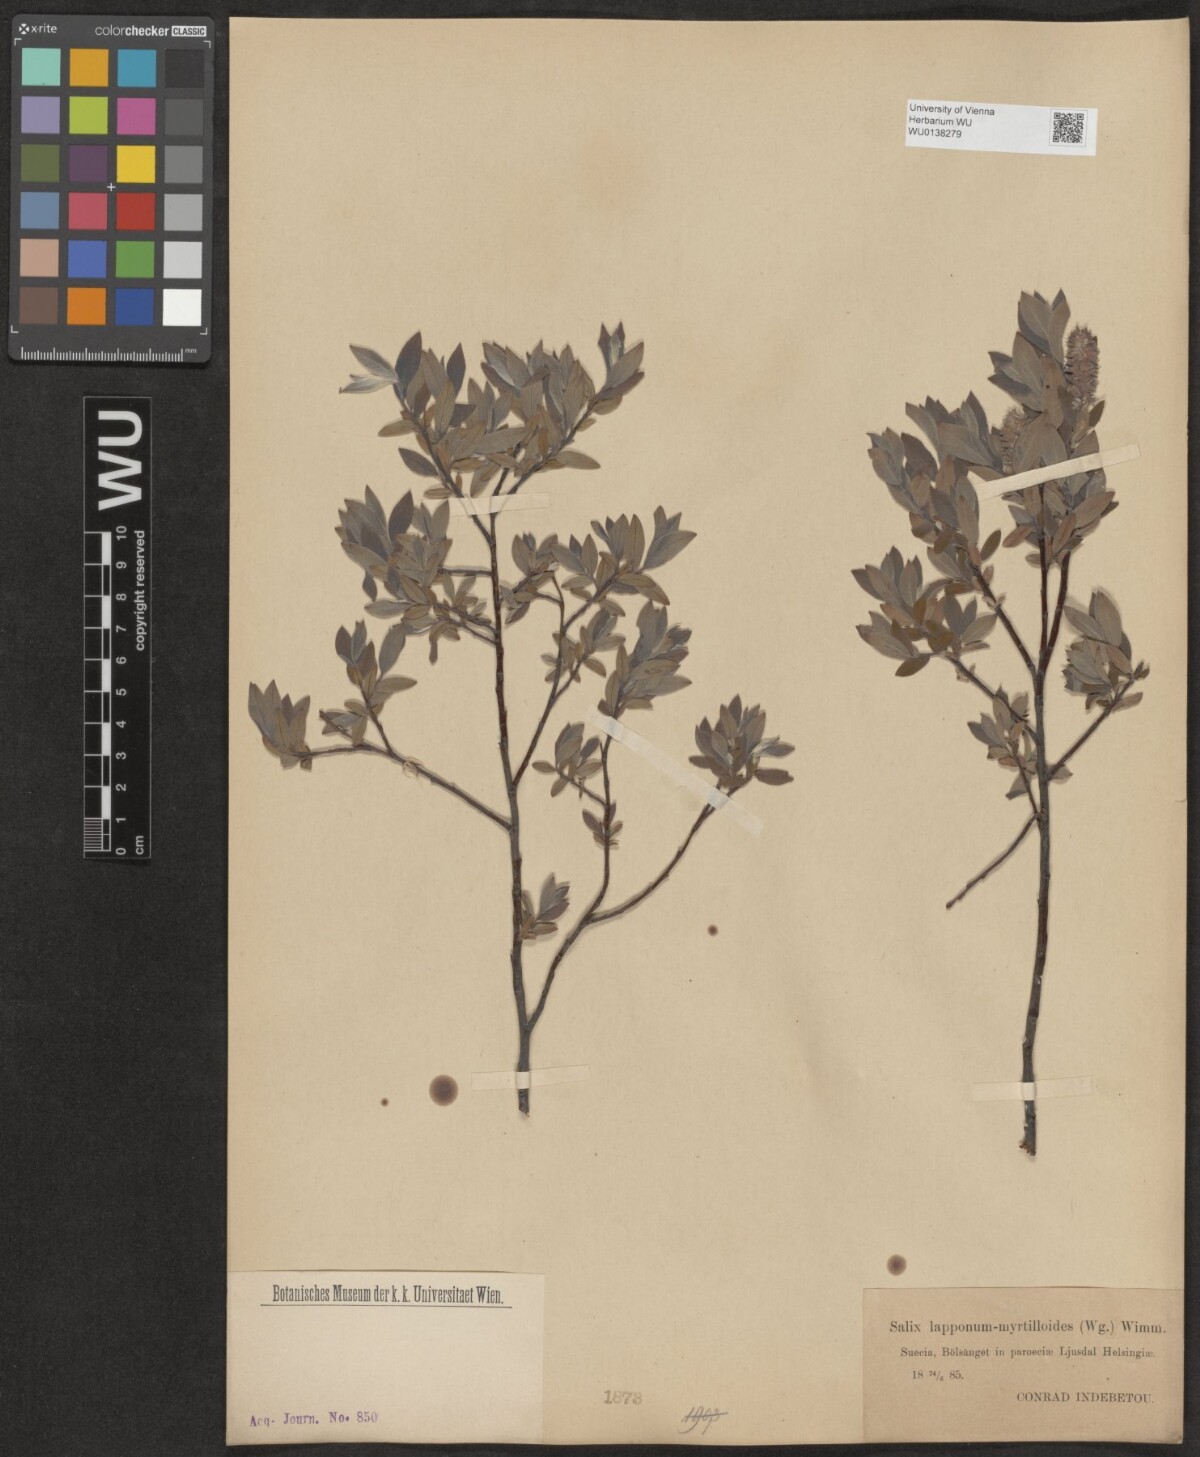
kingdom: Plantae
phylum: Tracheophyta
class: Magnoliopsida
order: Malpighiales
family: Salicaceae
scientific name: Salicaceae
